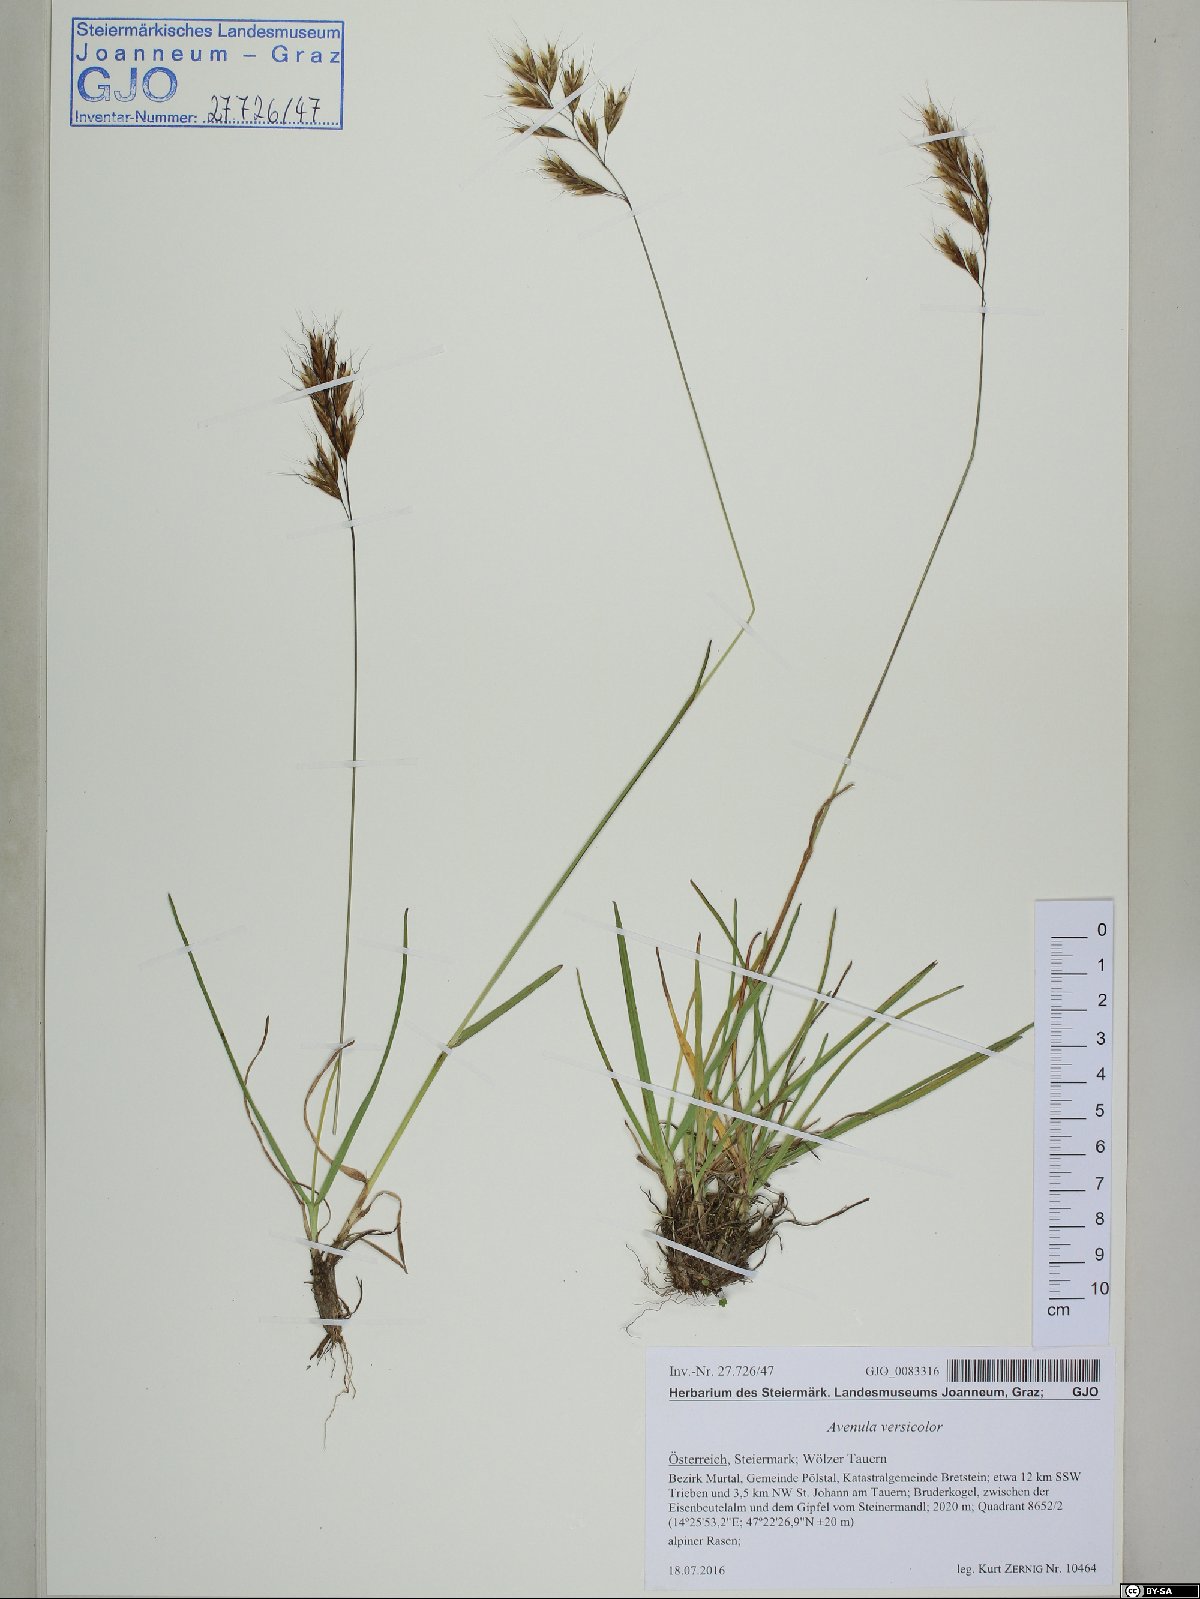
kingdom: Plantae
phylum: Tracheophyta
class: Liliopsida
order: Poales
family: Poaceae
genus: Helictochloa
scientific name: Helictochloa versicolor
